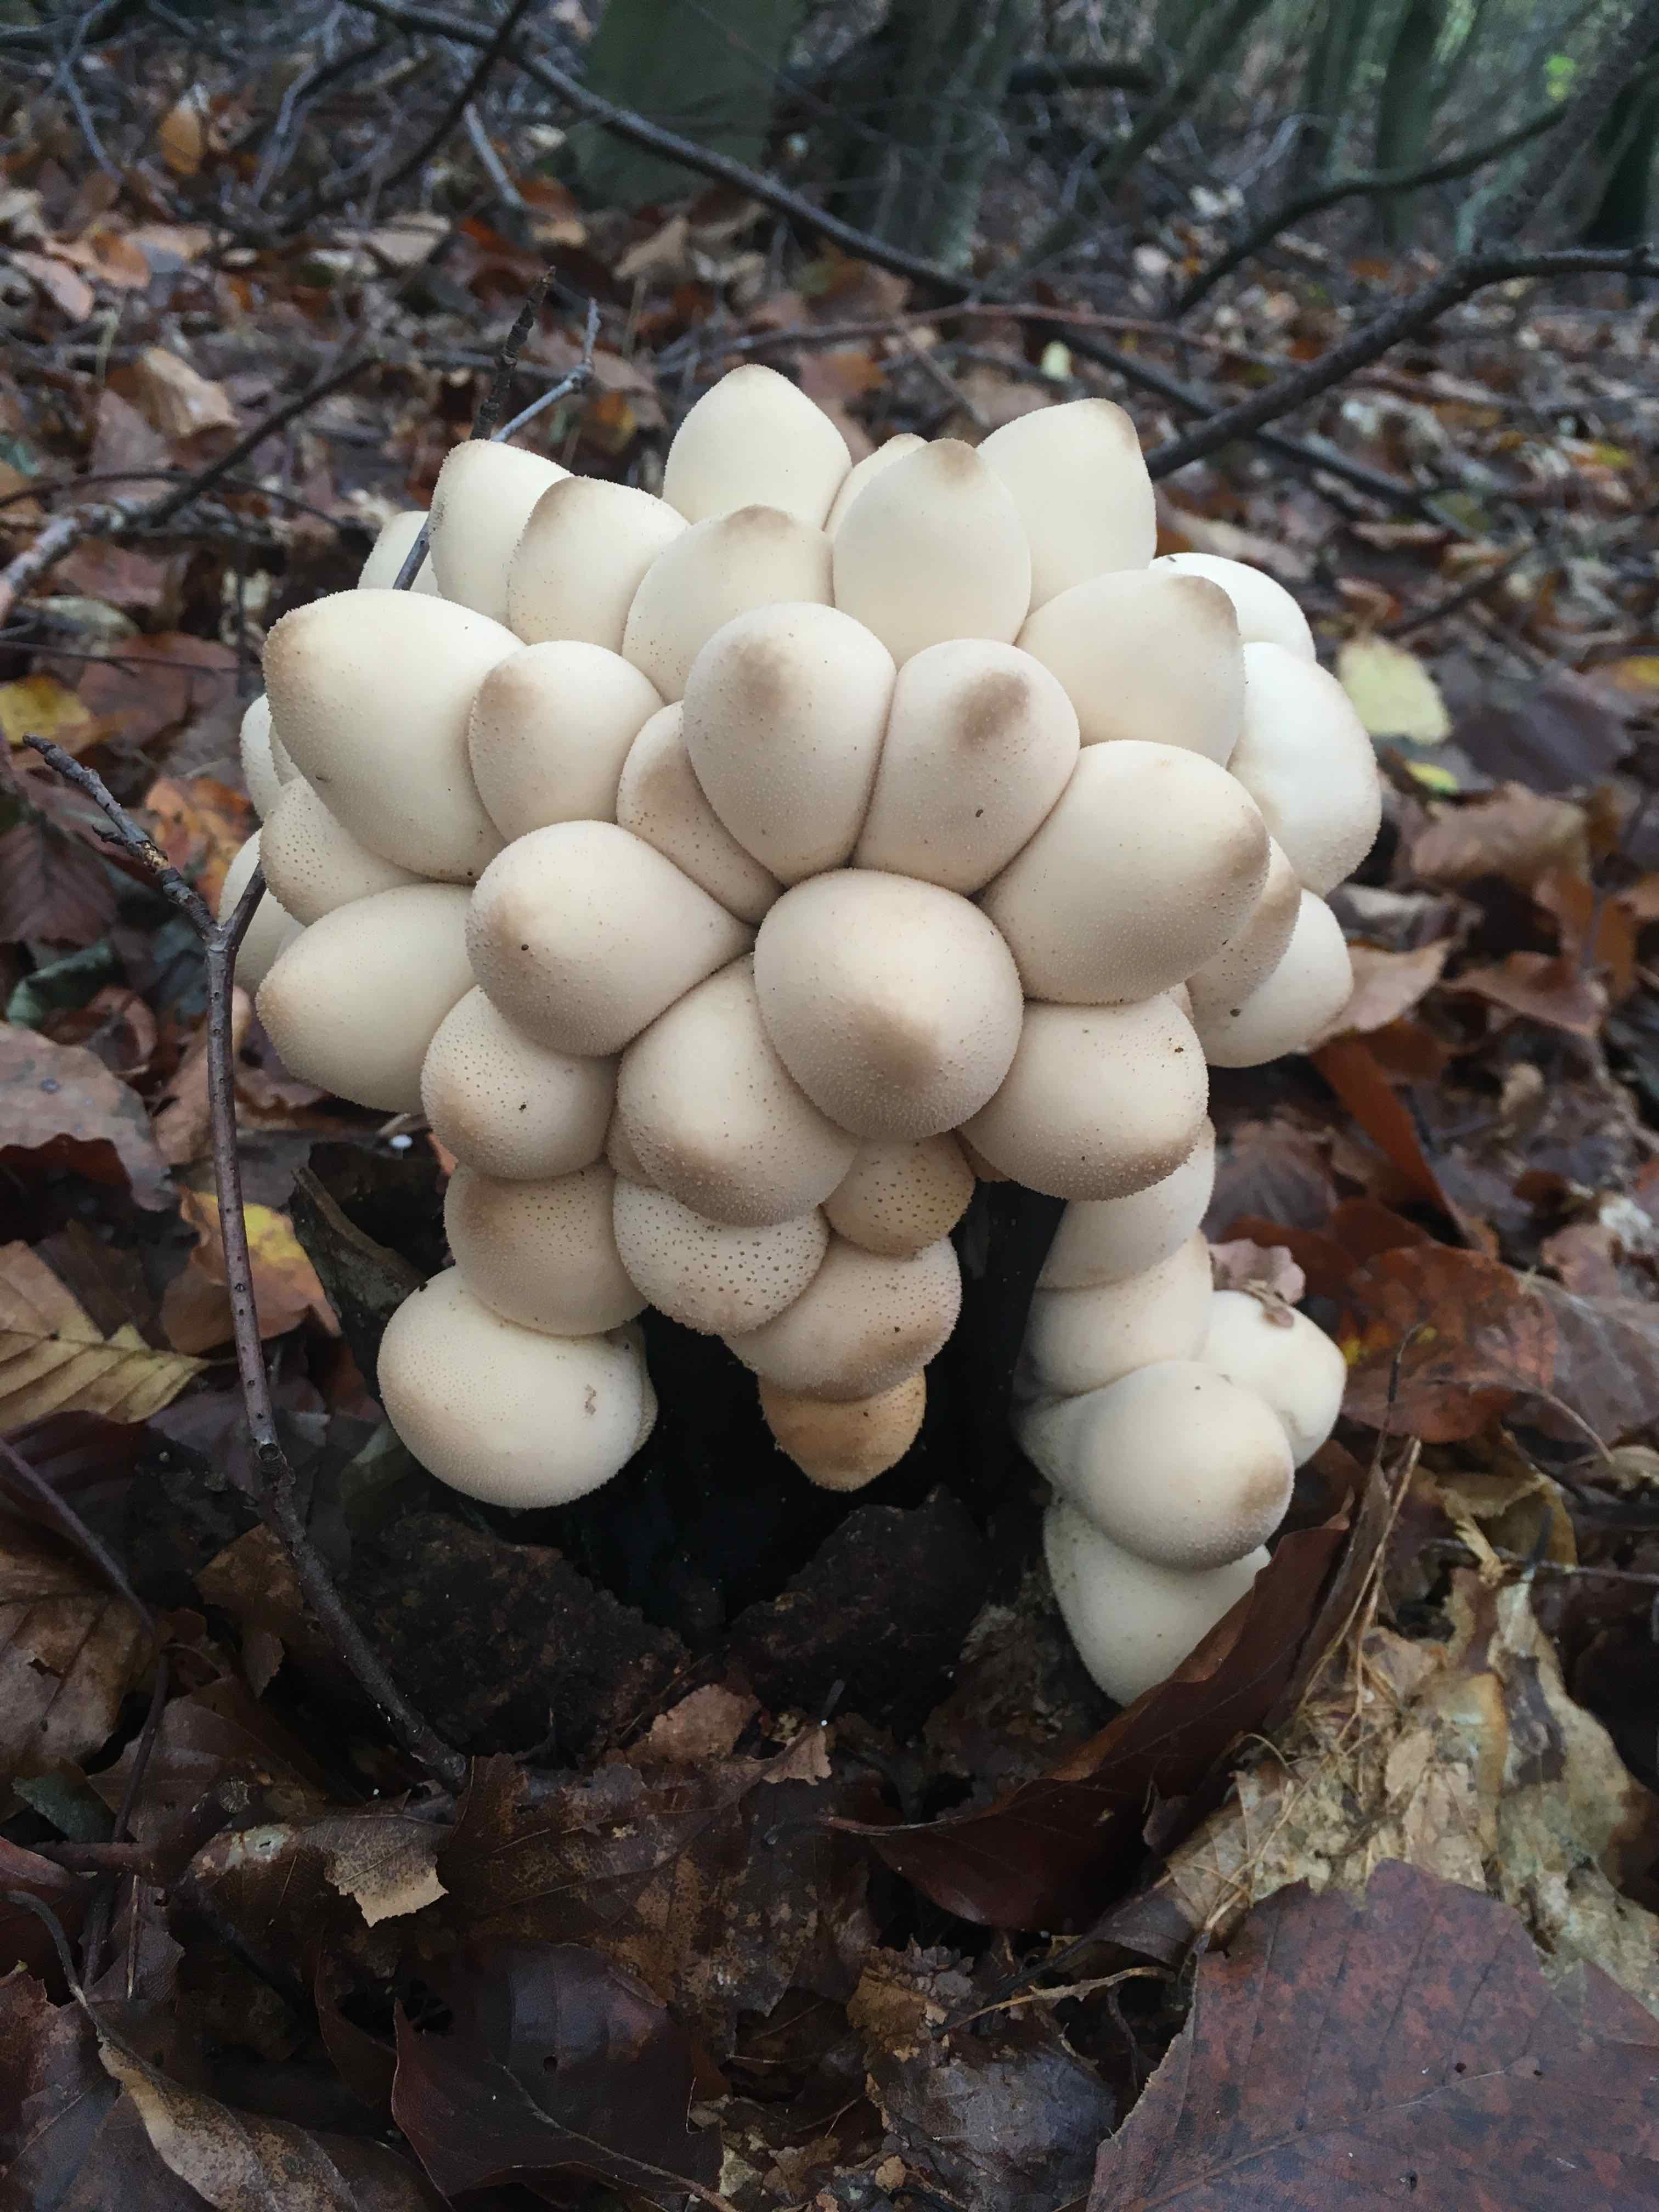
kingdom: Fungi
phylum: Basidiomycota
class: Agaricomycetes
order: Agaricales
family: Lycoperdaceae
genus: Apioperdon
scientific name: Apioperdon pyriforme
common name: pære-støvbold
